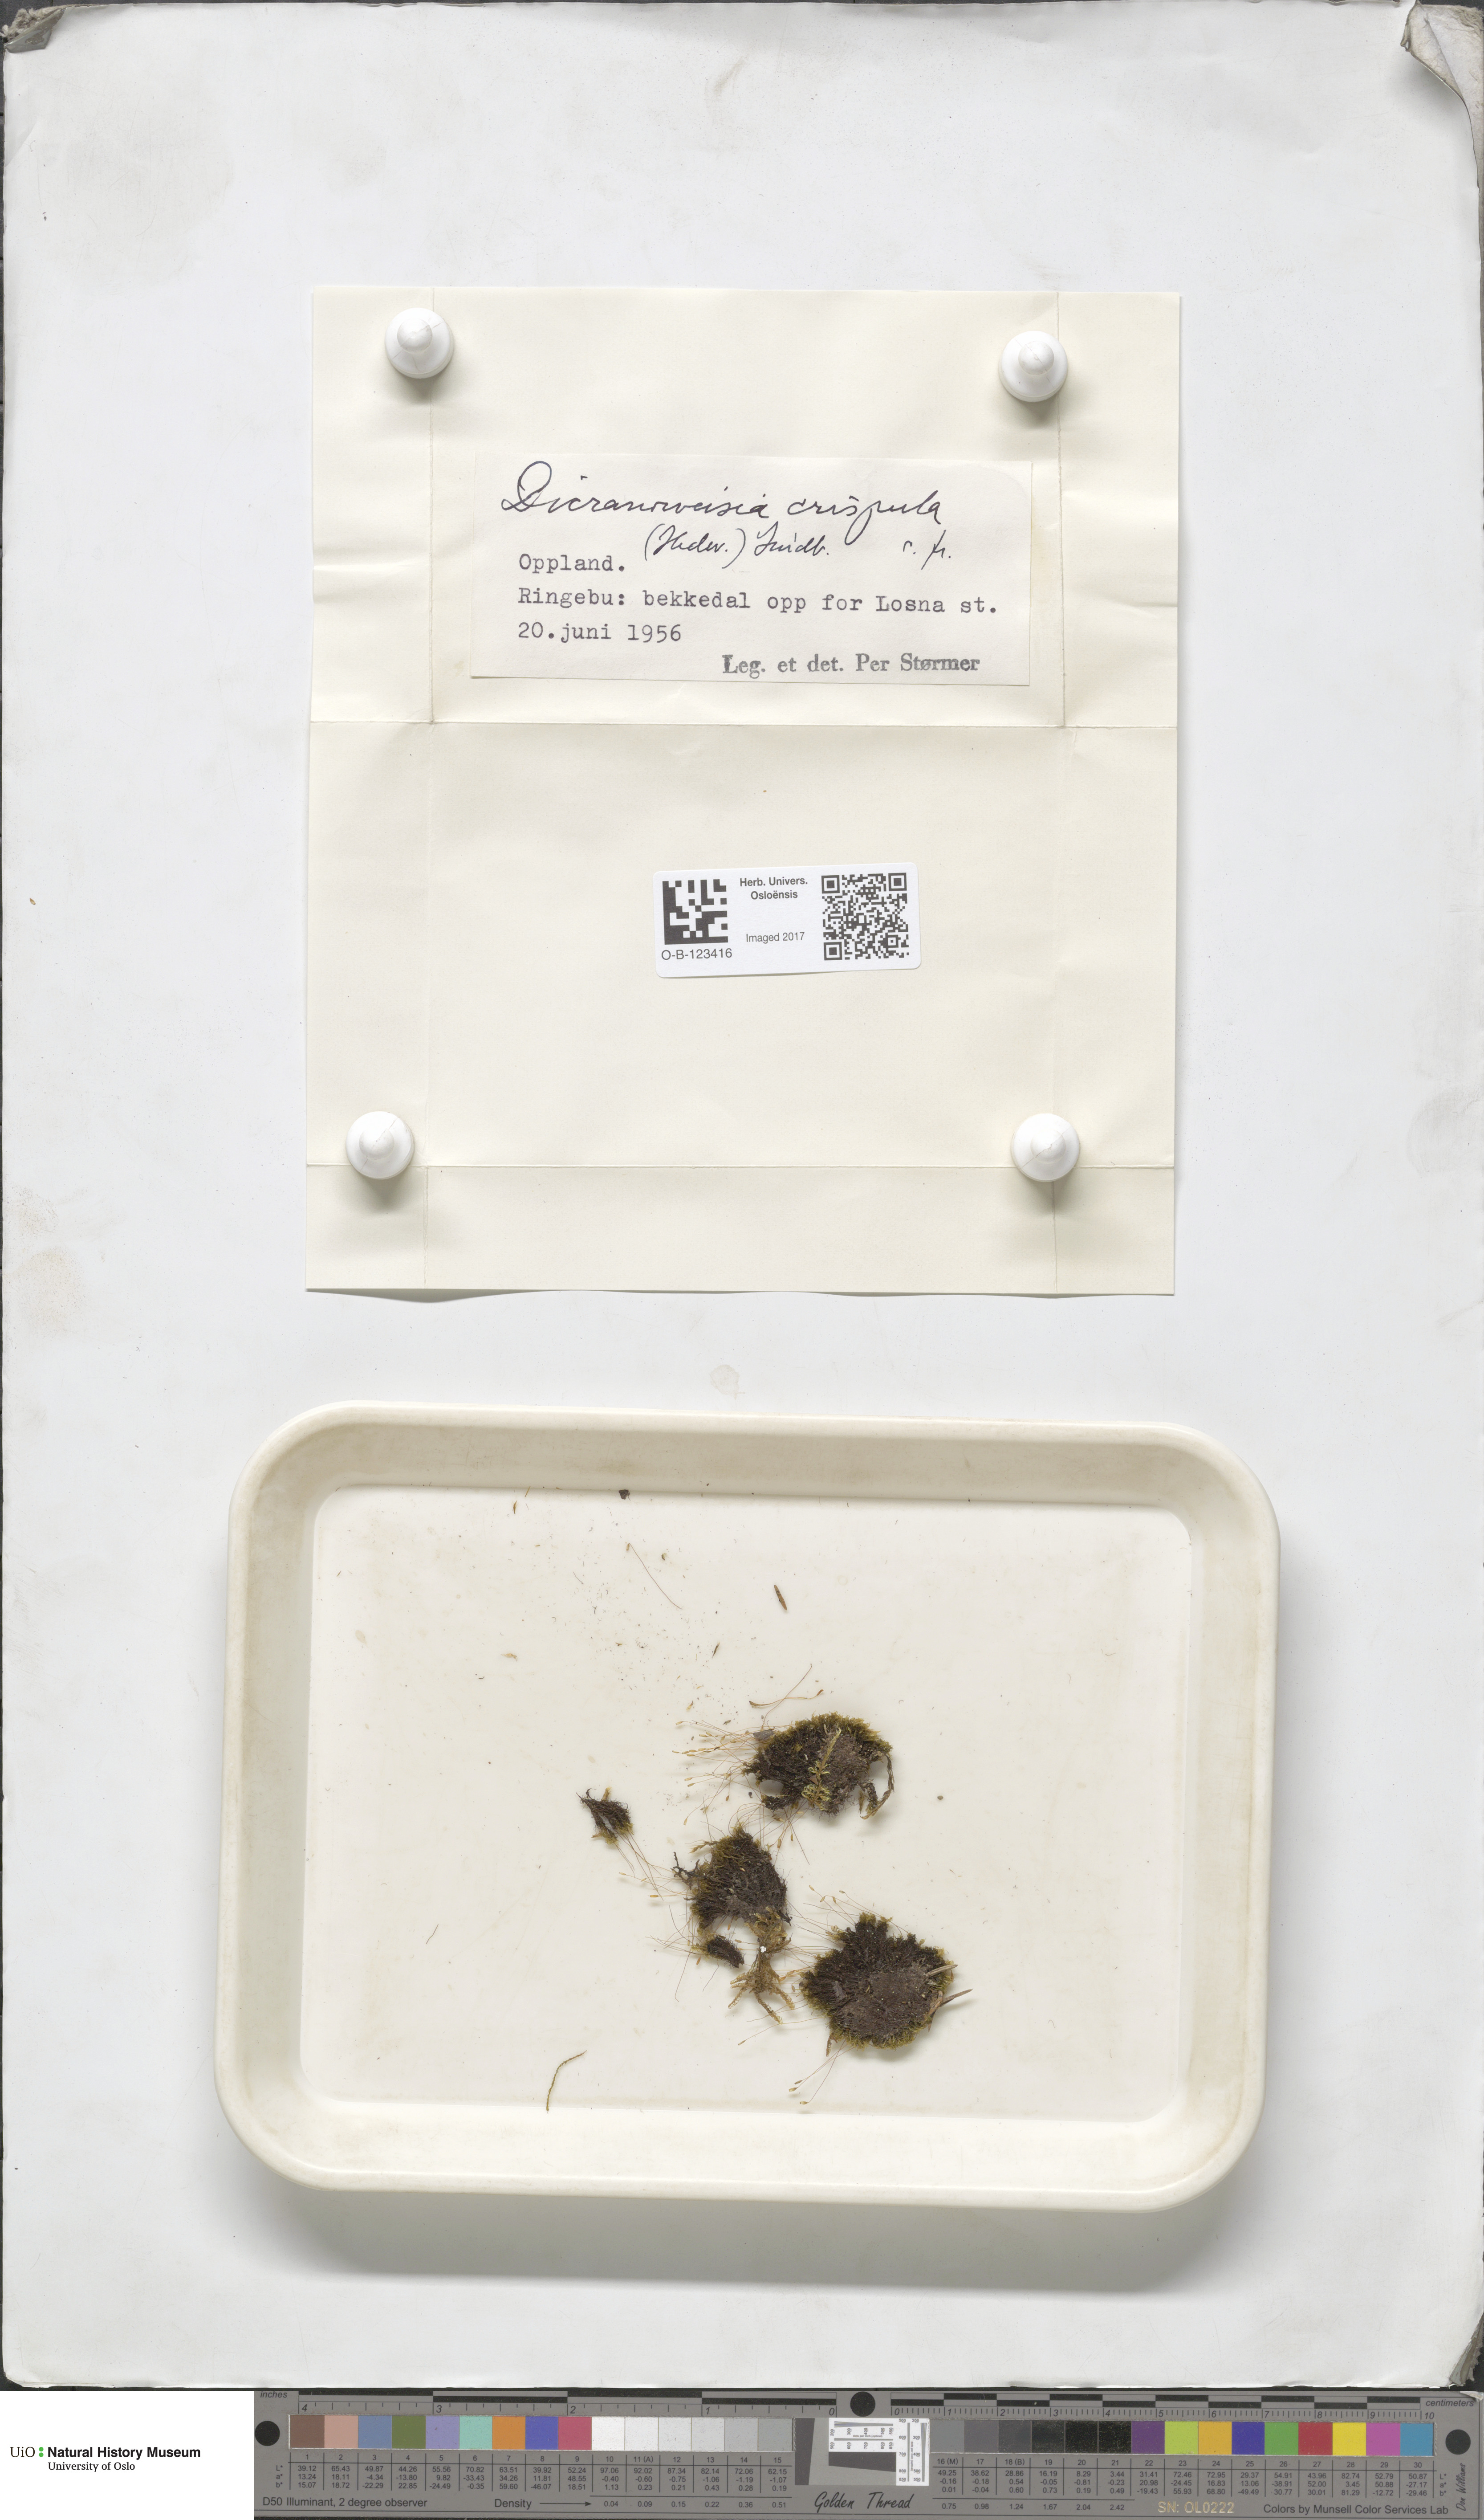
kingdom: Plantae
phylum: Bryophyta
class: Bryopsida
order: Scouleriales
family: Hymenolomataceae
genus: Hymenoloma
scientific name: Hymenoloma crispulum
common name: Mountain pincushion
